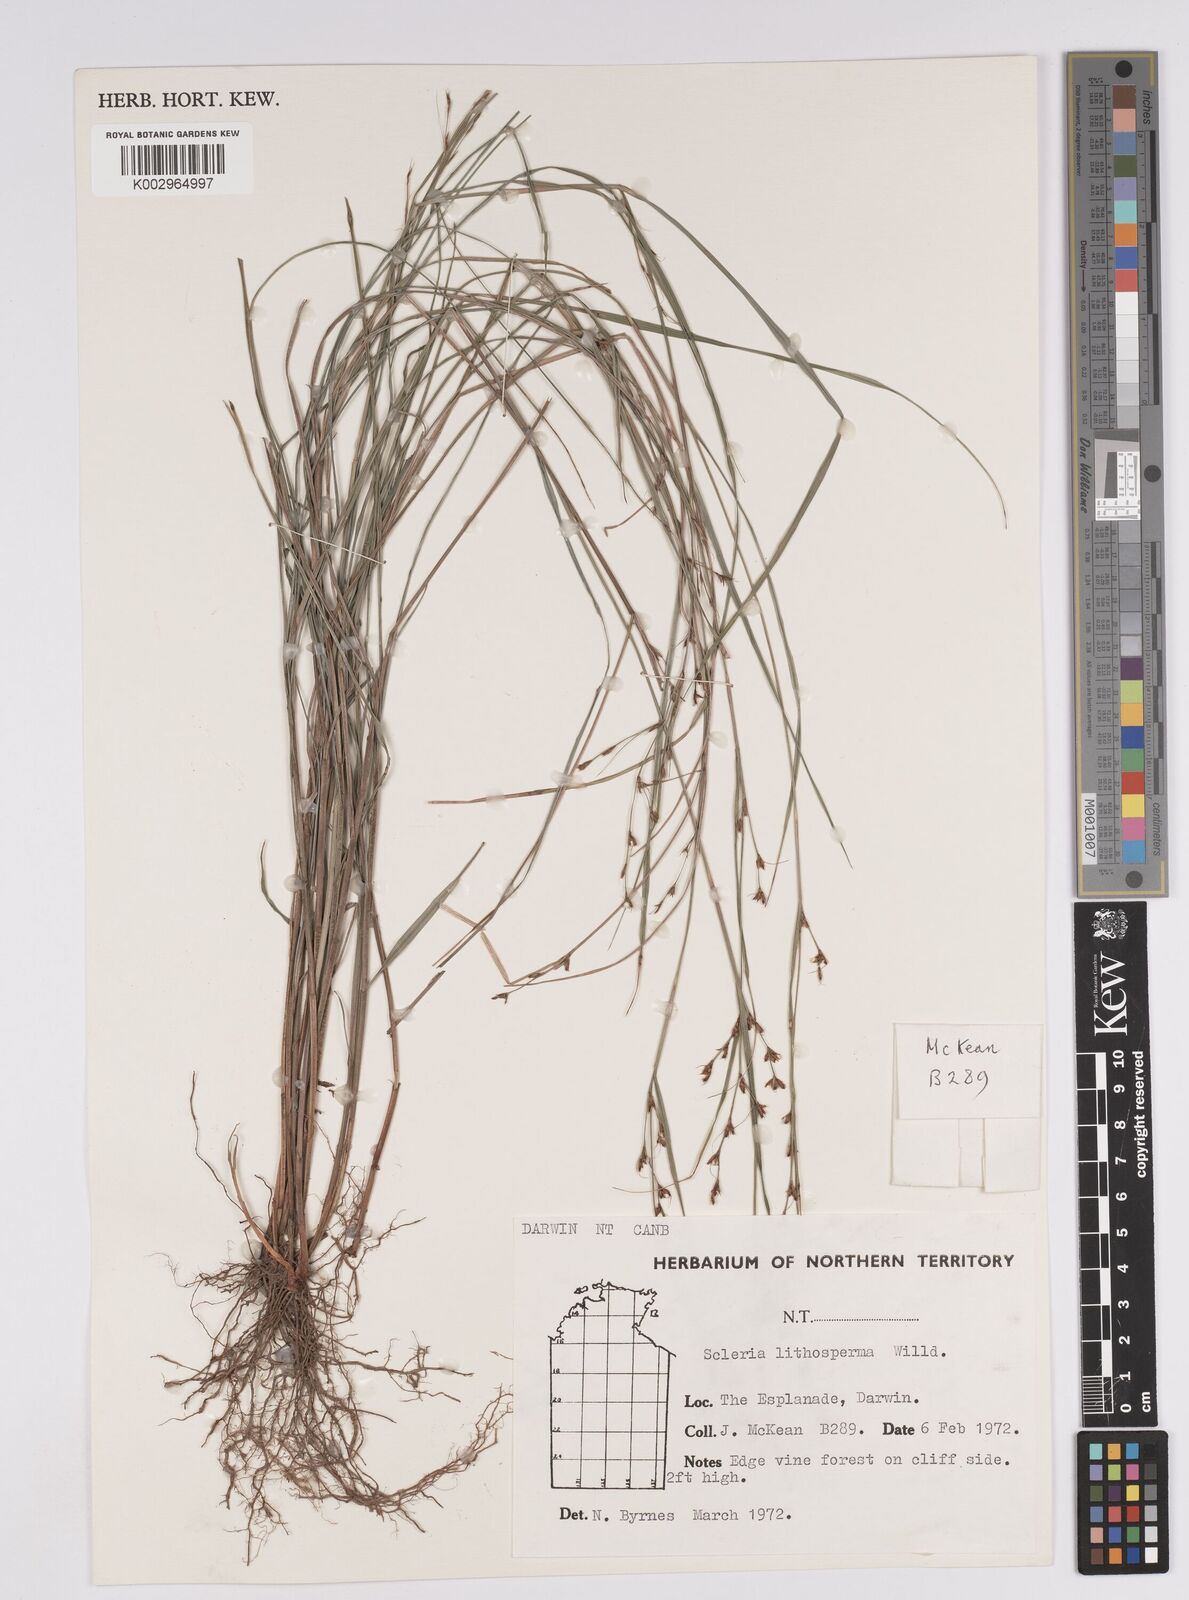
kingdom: Plantae
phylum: Tracheophyta
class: Liliopsida
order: Poales
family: Cyperaceae
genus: Scleria
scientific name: Scleria lithosperma
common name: Florida keys nut-rush
